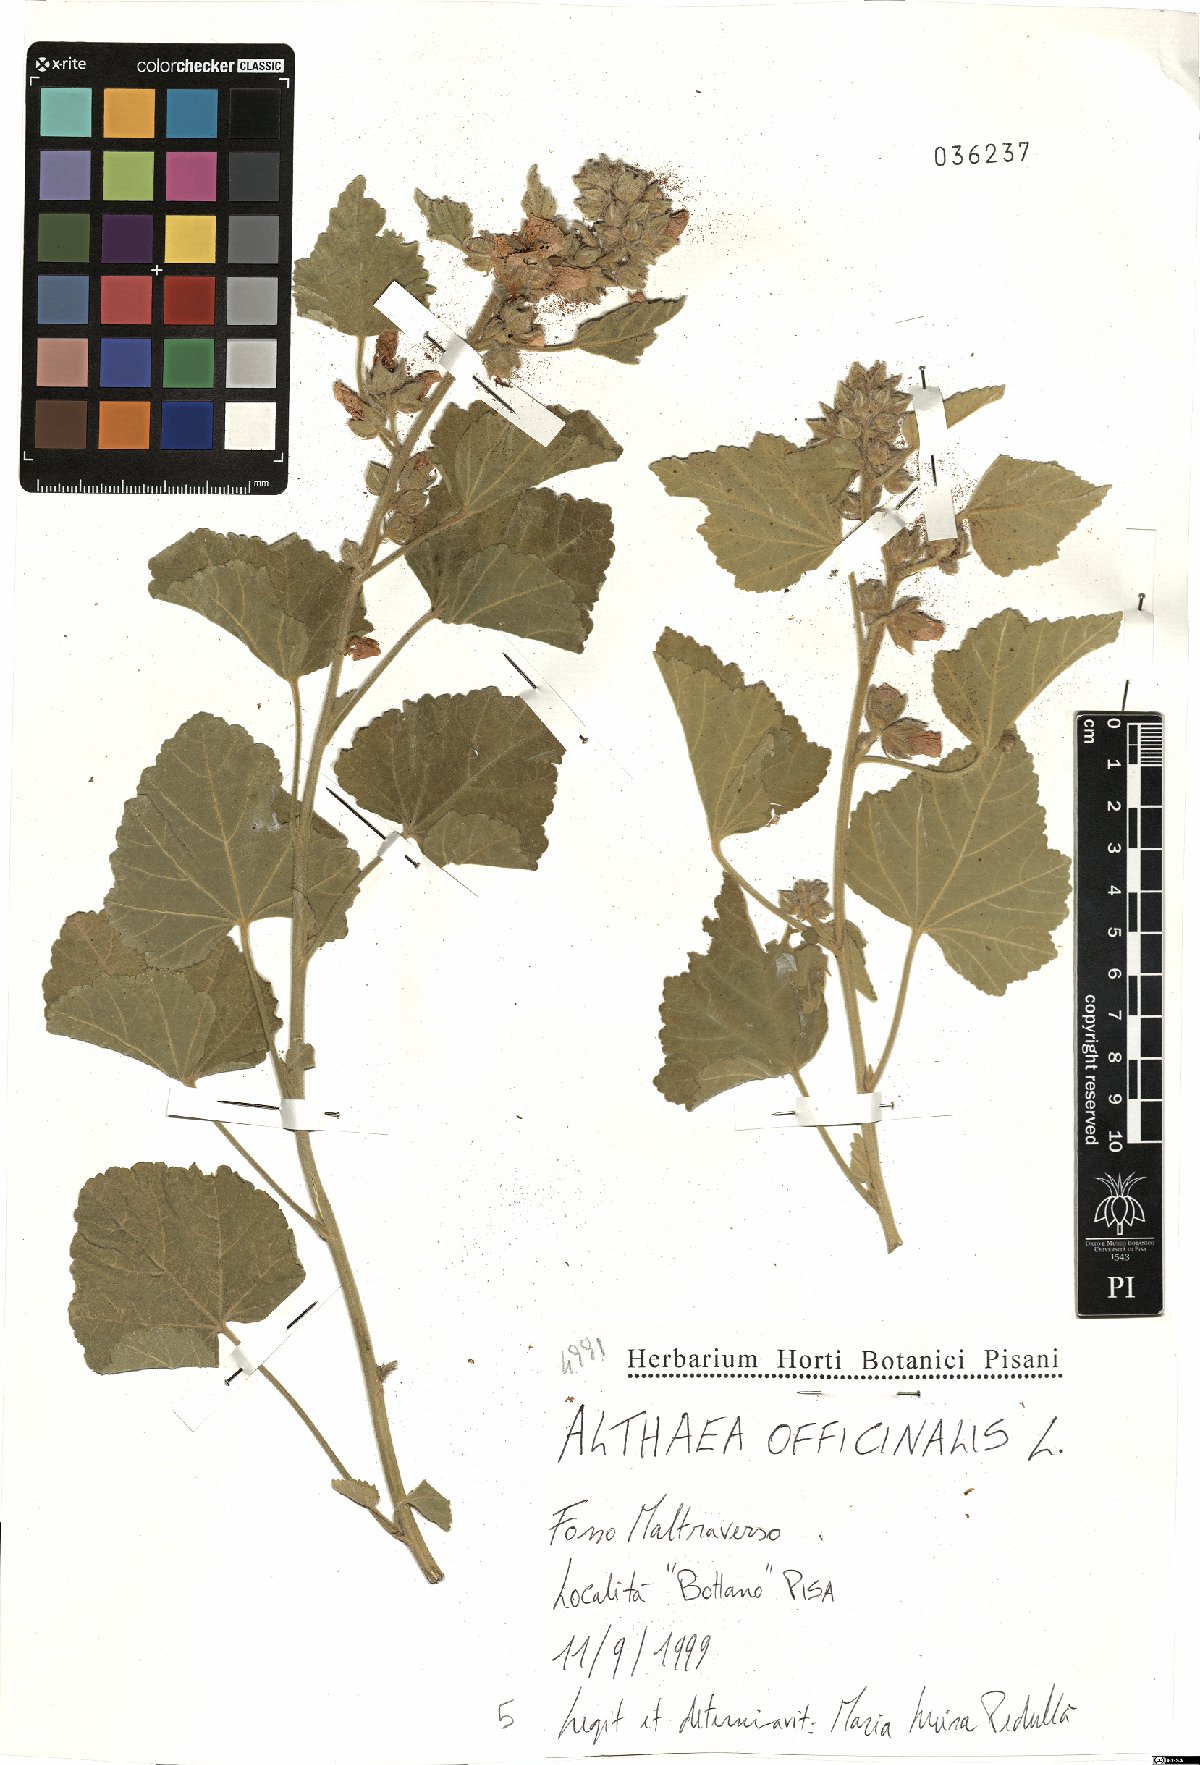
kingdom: Plantae
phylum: Tracheophyta
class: Magnoliopsida
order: Malvales
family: Malvaceae
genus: Althaea
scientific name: Althaea officinalis
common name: Marsh-mallow
